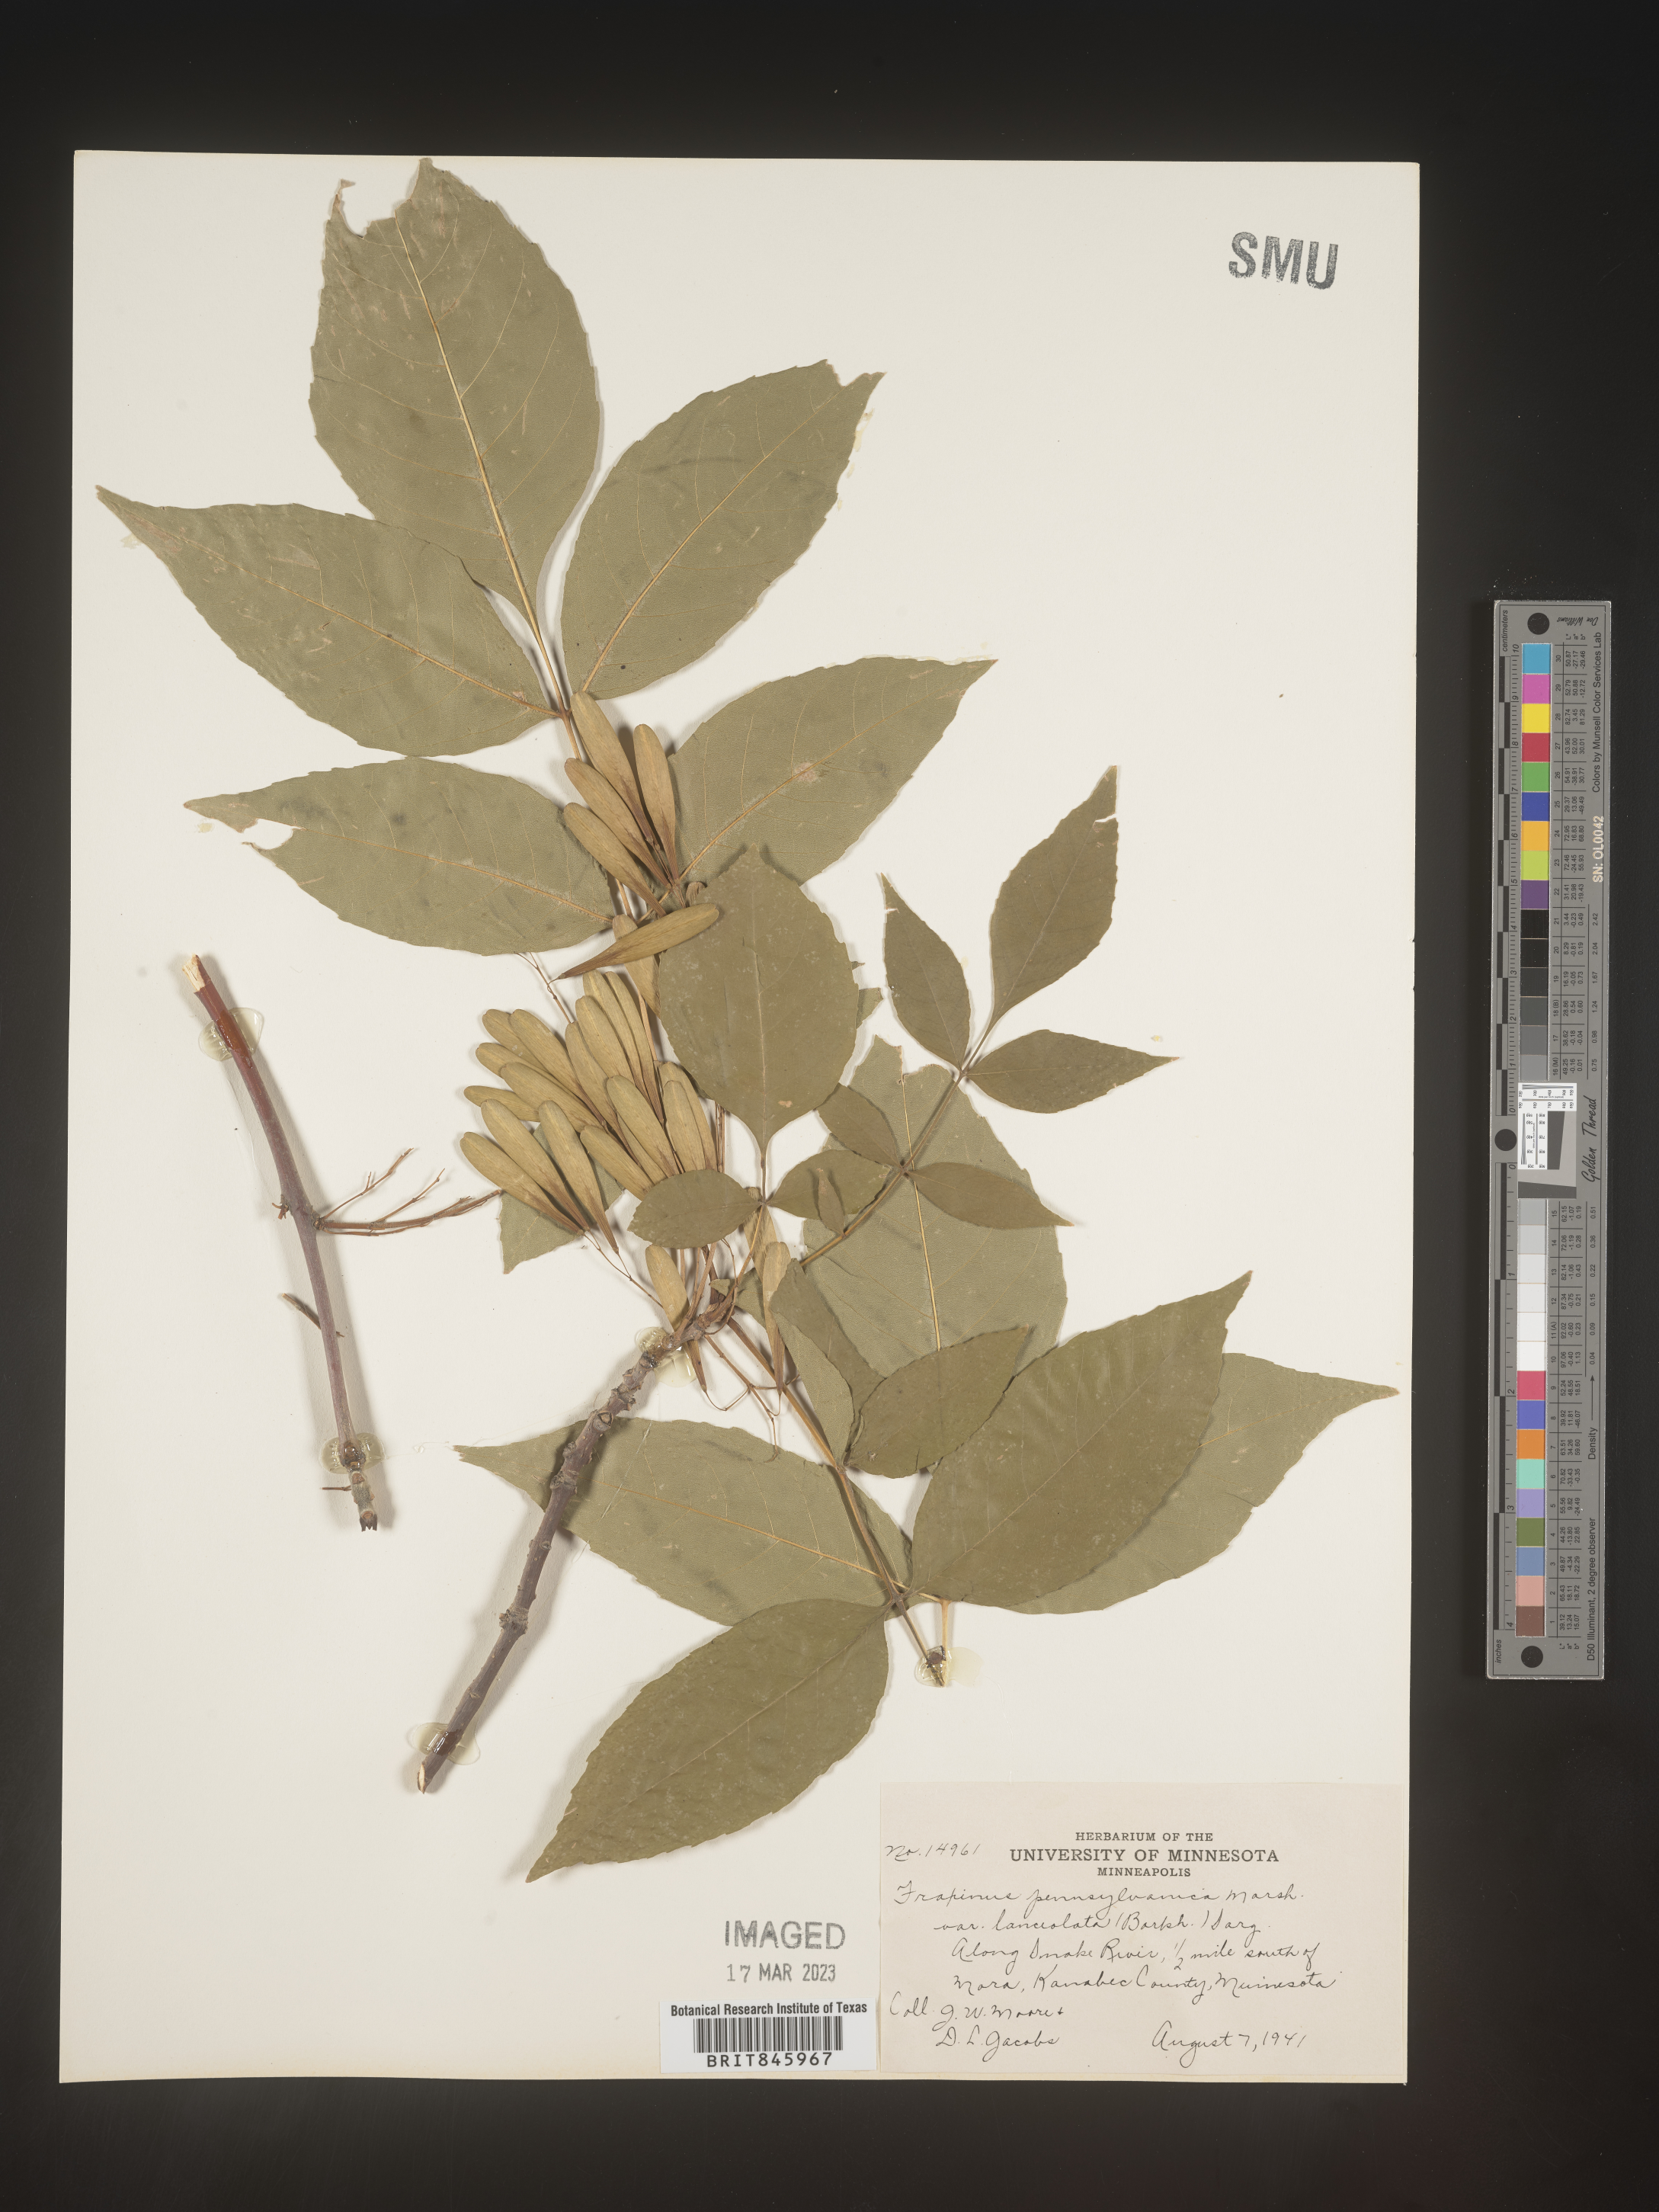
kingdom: Plantae
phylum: Tracheophyta
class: Magnoliopsida
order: Lamiales
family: Oleaceae
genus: Fraxinus
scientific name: Fraxinus
